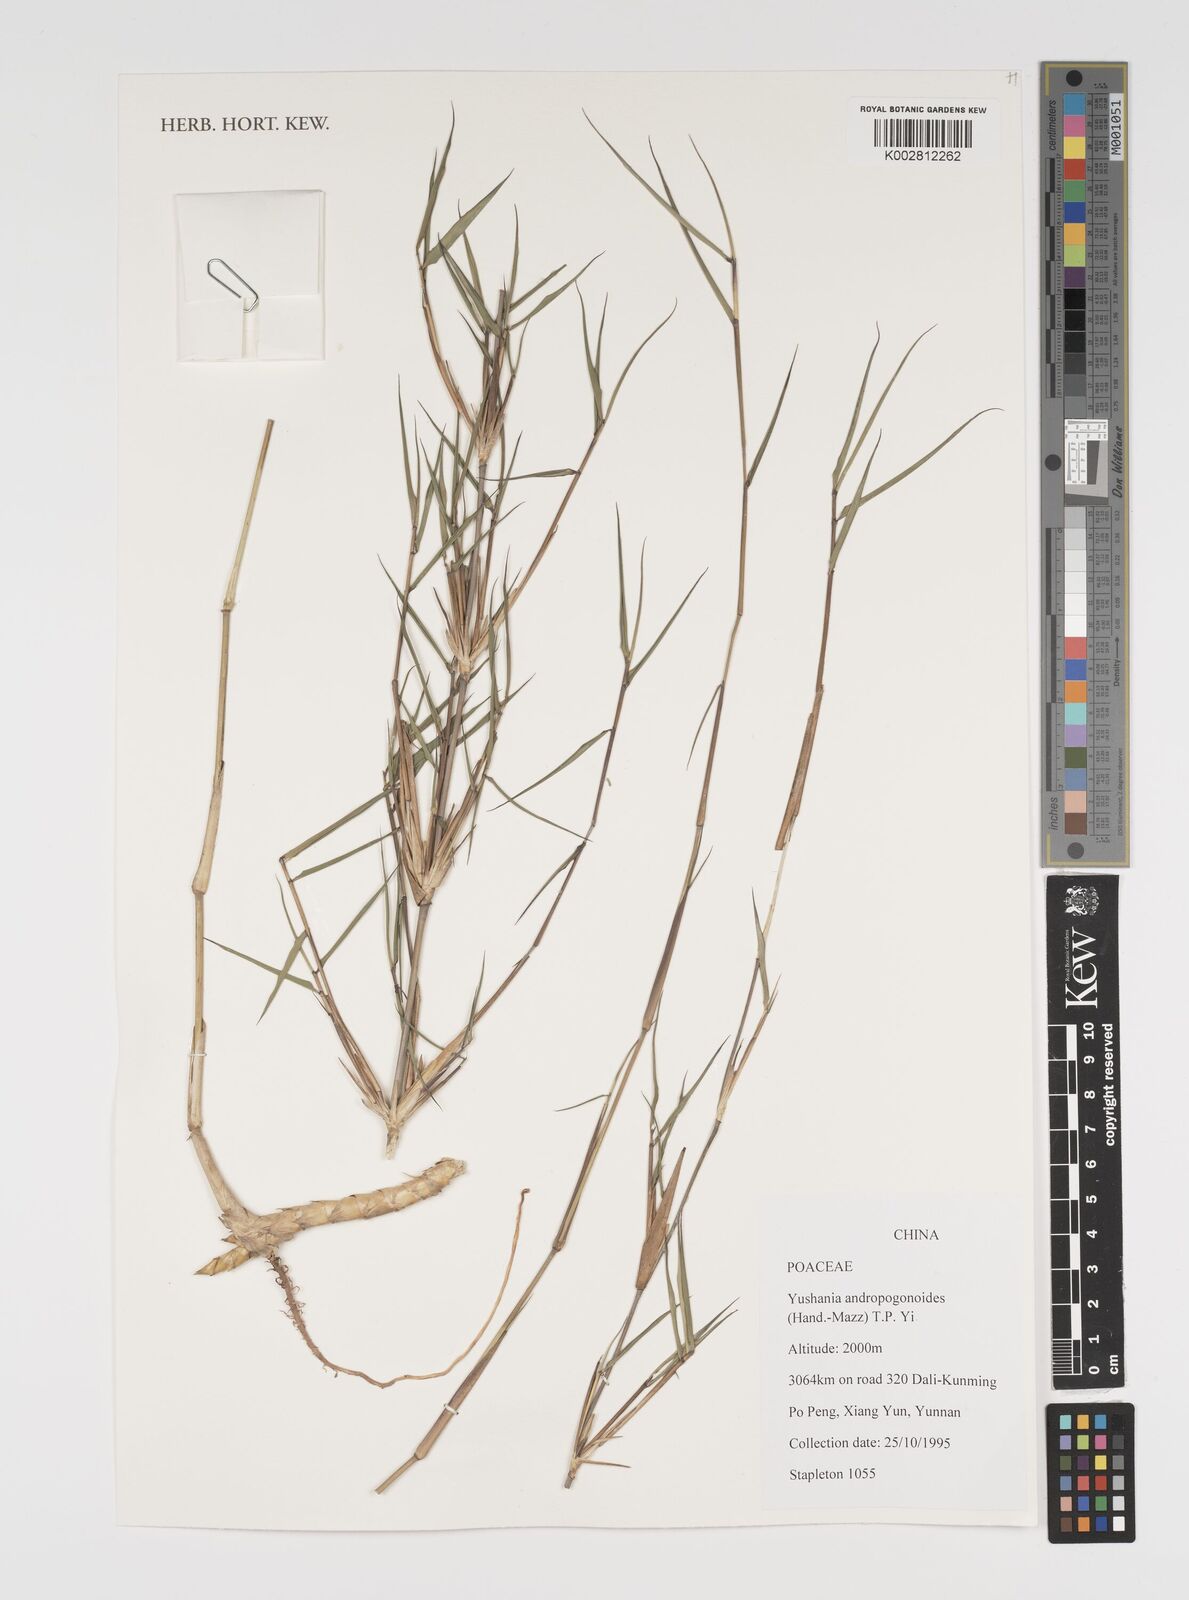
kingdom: Plantae
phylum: Tracheophyta
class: Liliopsida
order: Poales
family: Poaceae
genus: Yushania
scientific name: Yushania andropogonoides
